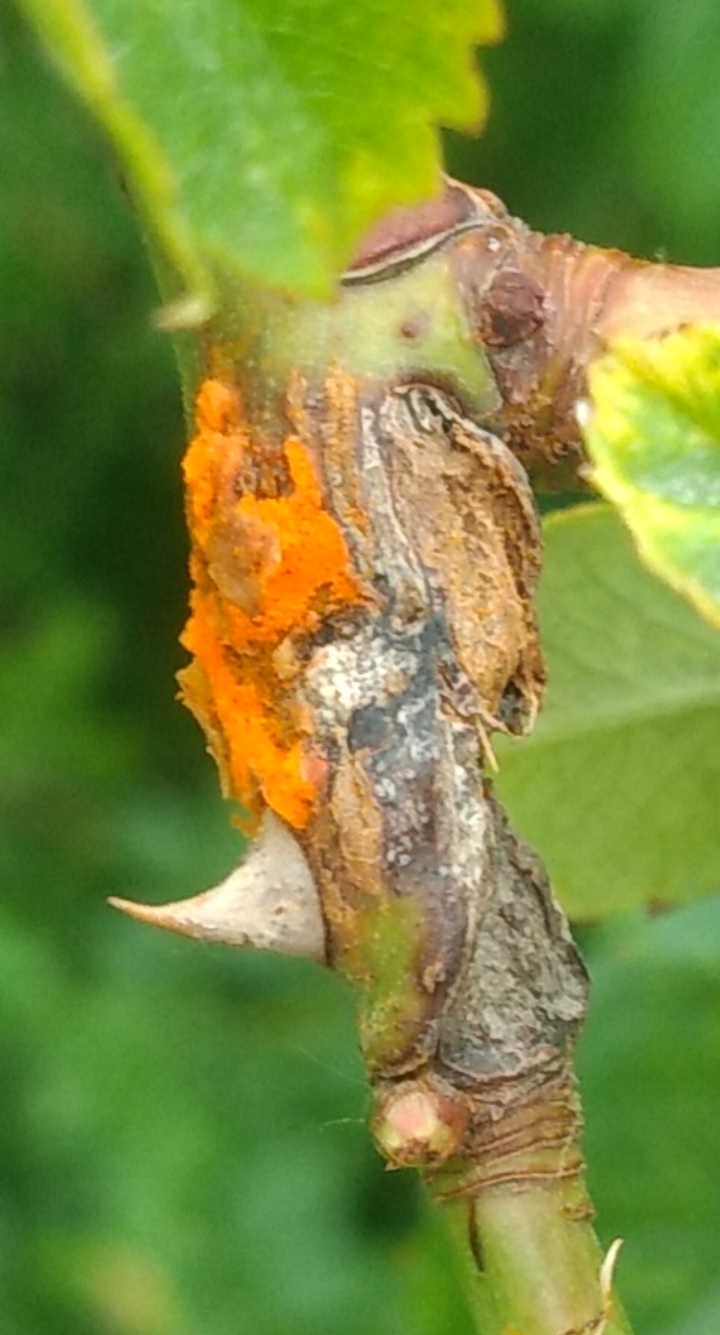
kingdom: Fungi
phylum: Basidiomycota
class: Pucciniomycetes
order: Pucciniales
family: Phragmidiaceae
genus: Phragmidium
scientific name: Phragmidium
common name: flercellerust
